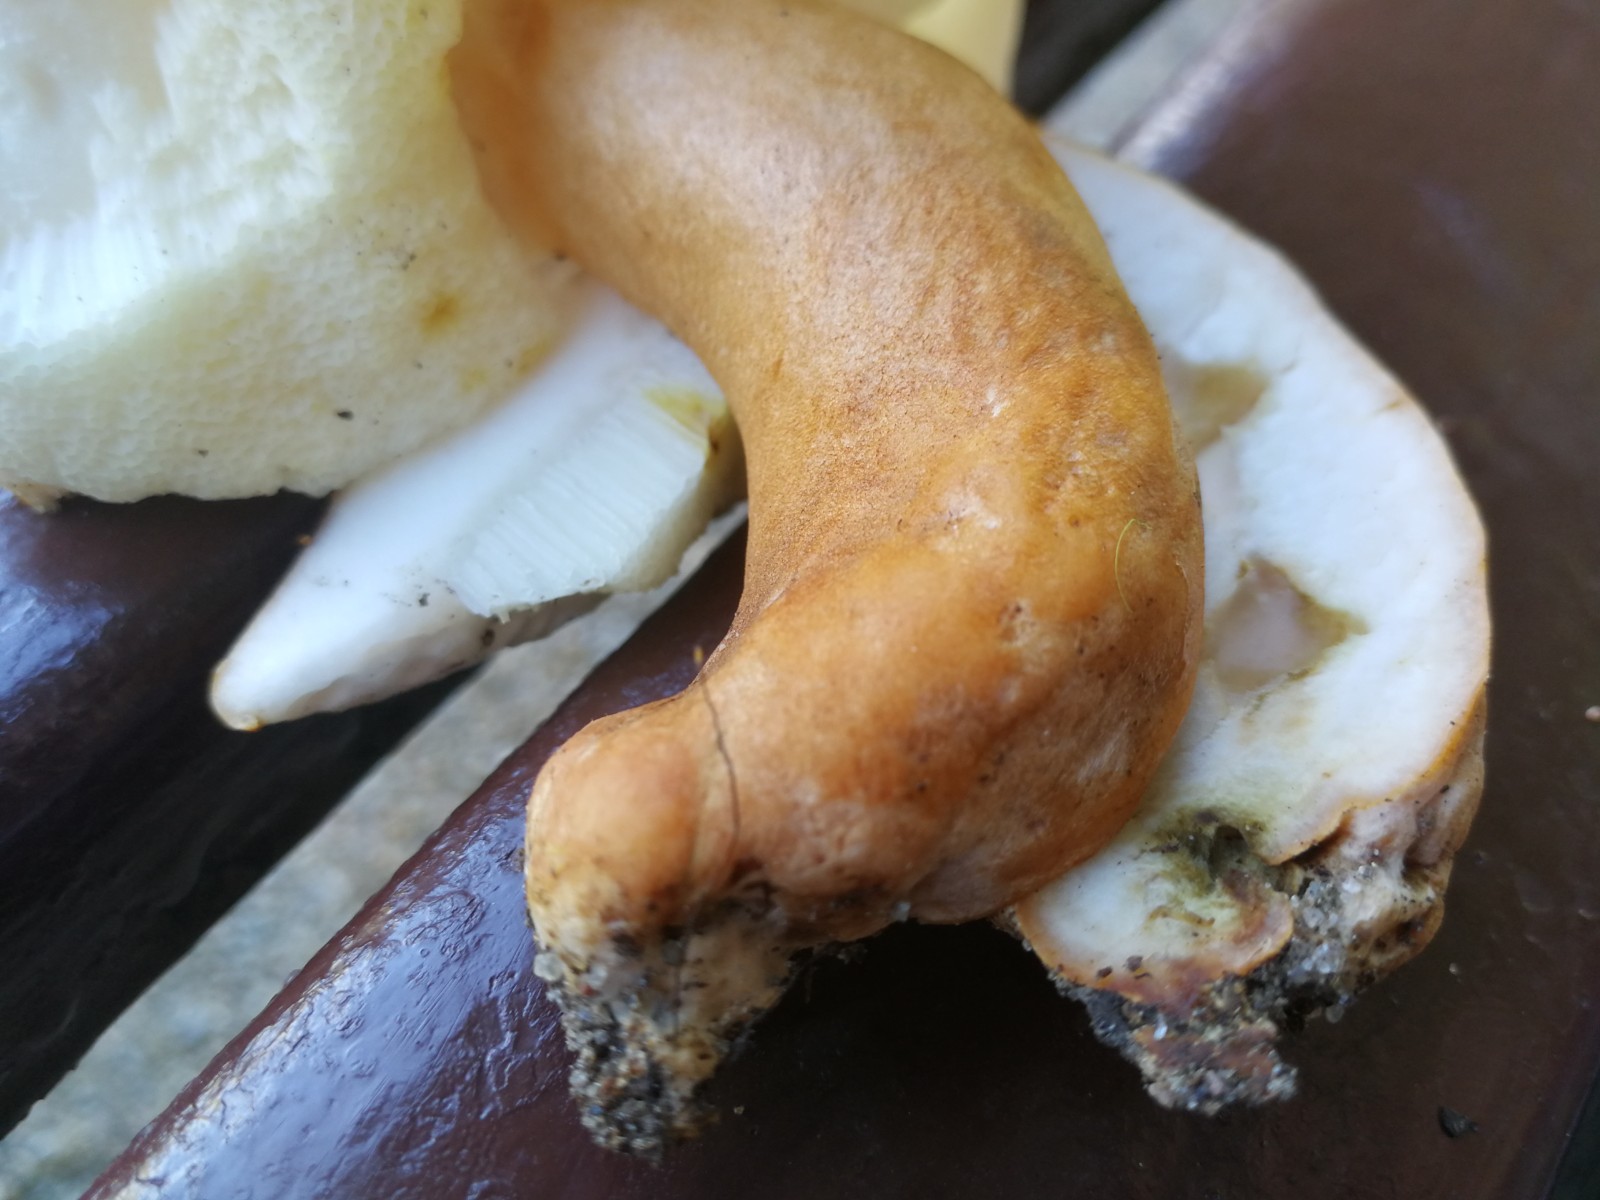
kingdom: Fungi
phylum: Basidiomycota
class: Agaricomycetes
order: Boletales
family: Gyroporaceae
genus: Gyroporus
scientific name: Gyroporus castaneus
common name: kastanie-kammerrørhat
